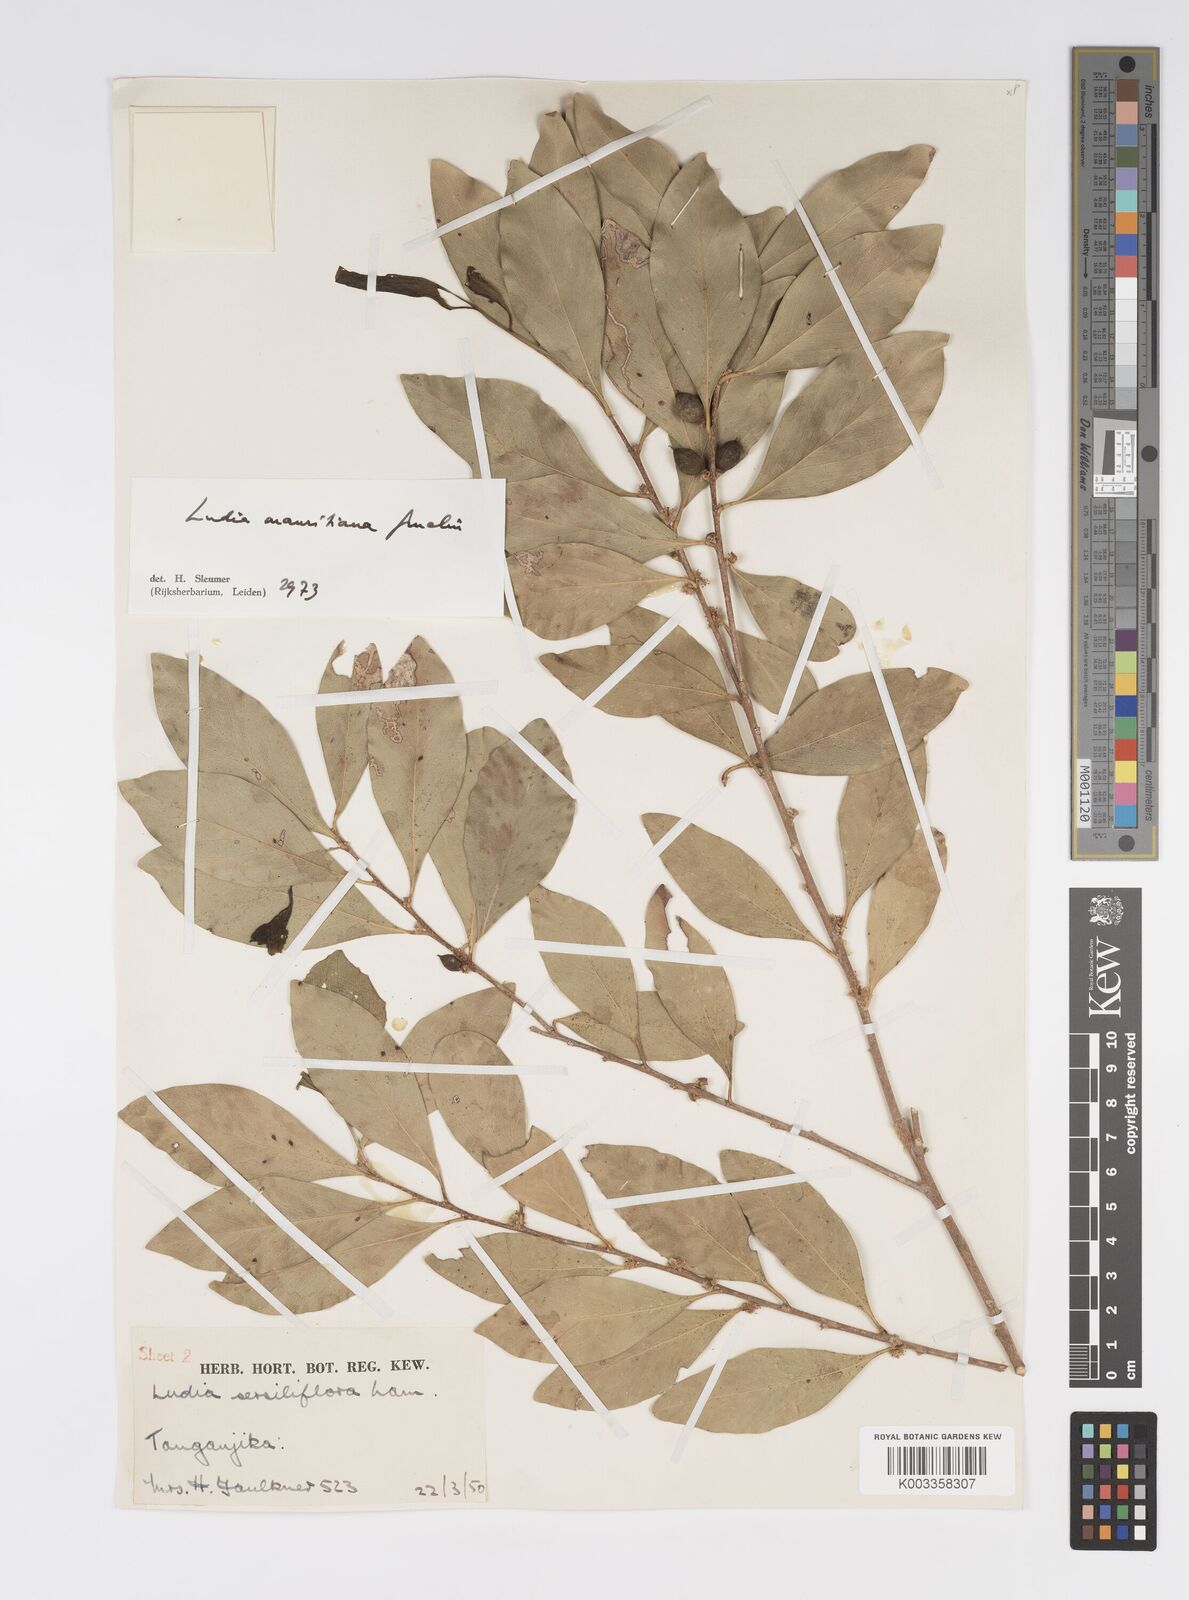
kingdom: Plantae
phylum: Tracheophyta
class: Magnoliopsida
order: Malpighiales
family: Salicaceae
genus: Ludia
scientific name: Ludia mauritiana
